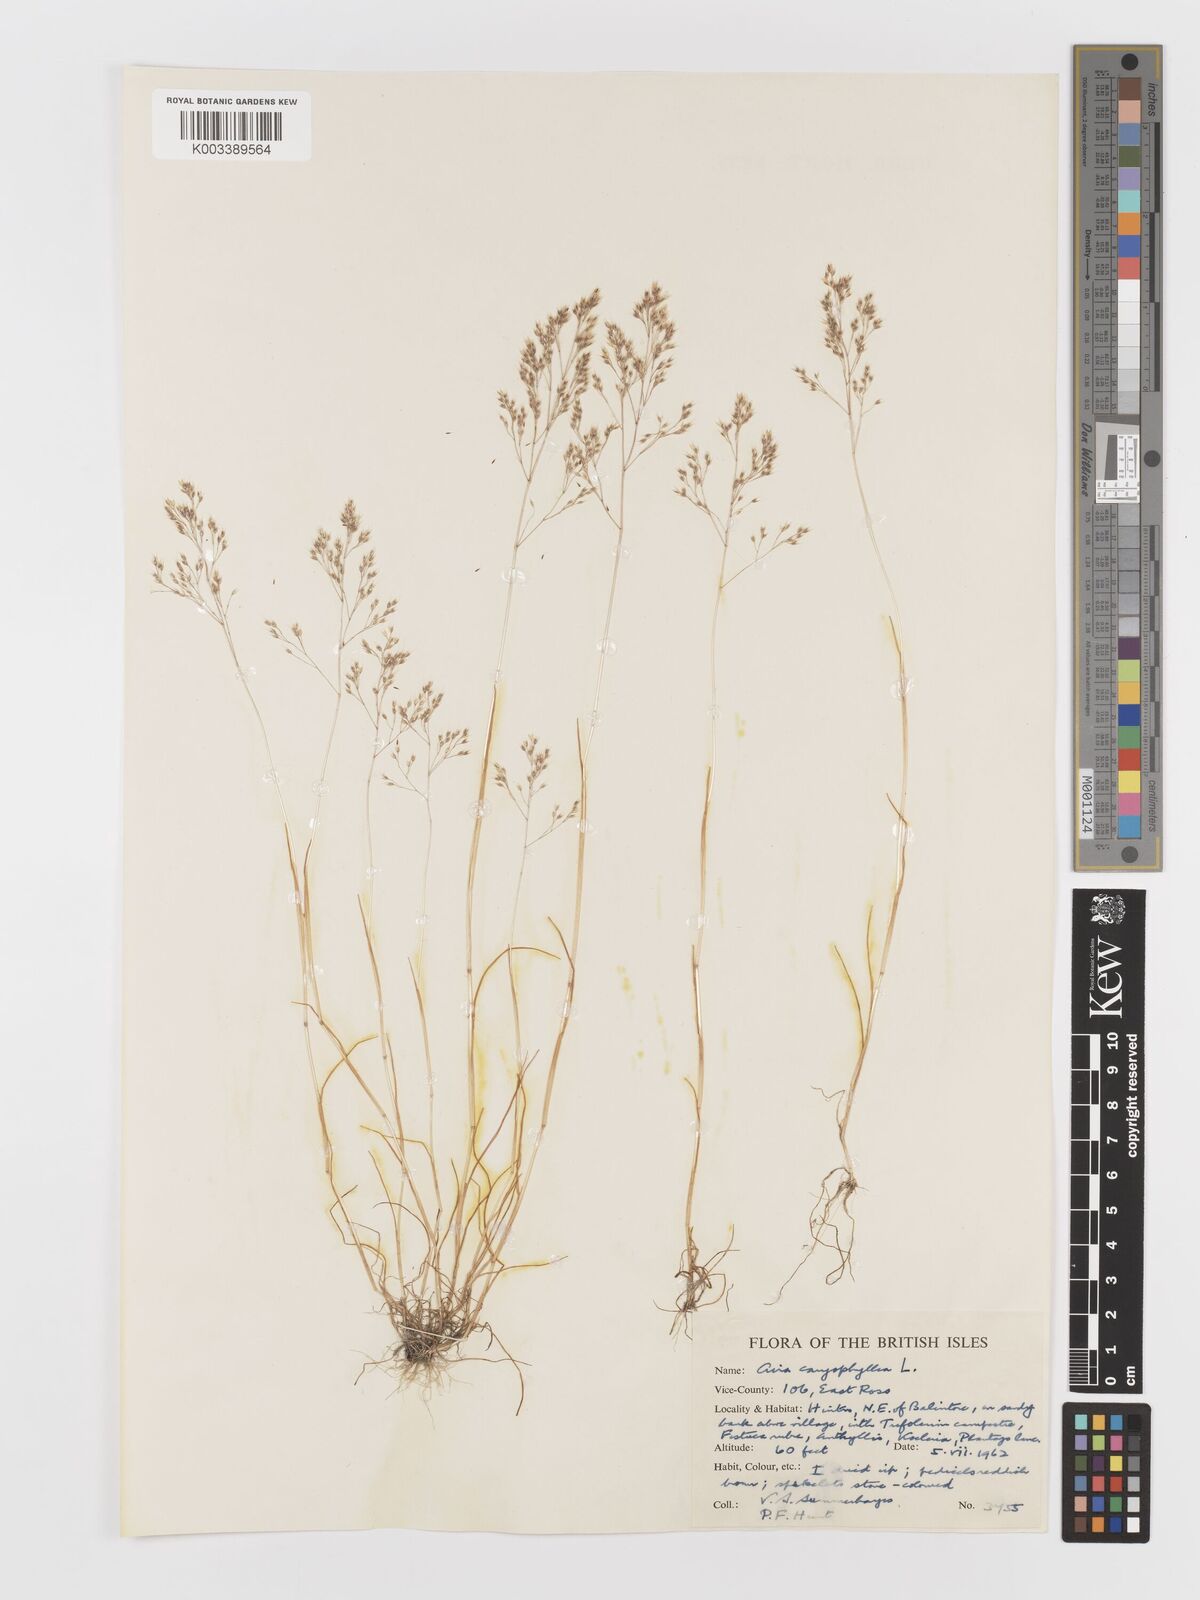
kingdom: Plantae
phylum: Tracheophyta
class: Liliopsida
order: Poales
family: Poaceae
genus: Aira
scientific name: Aira caryophyllea
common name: Silver hairgrass
